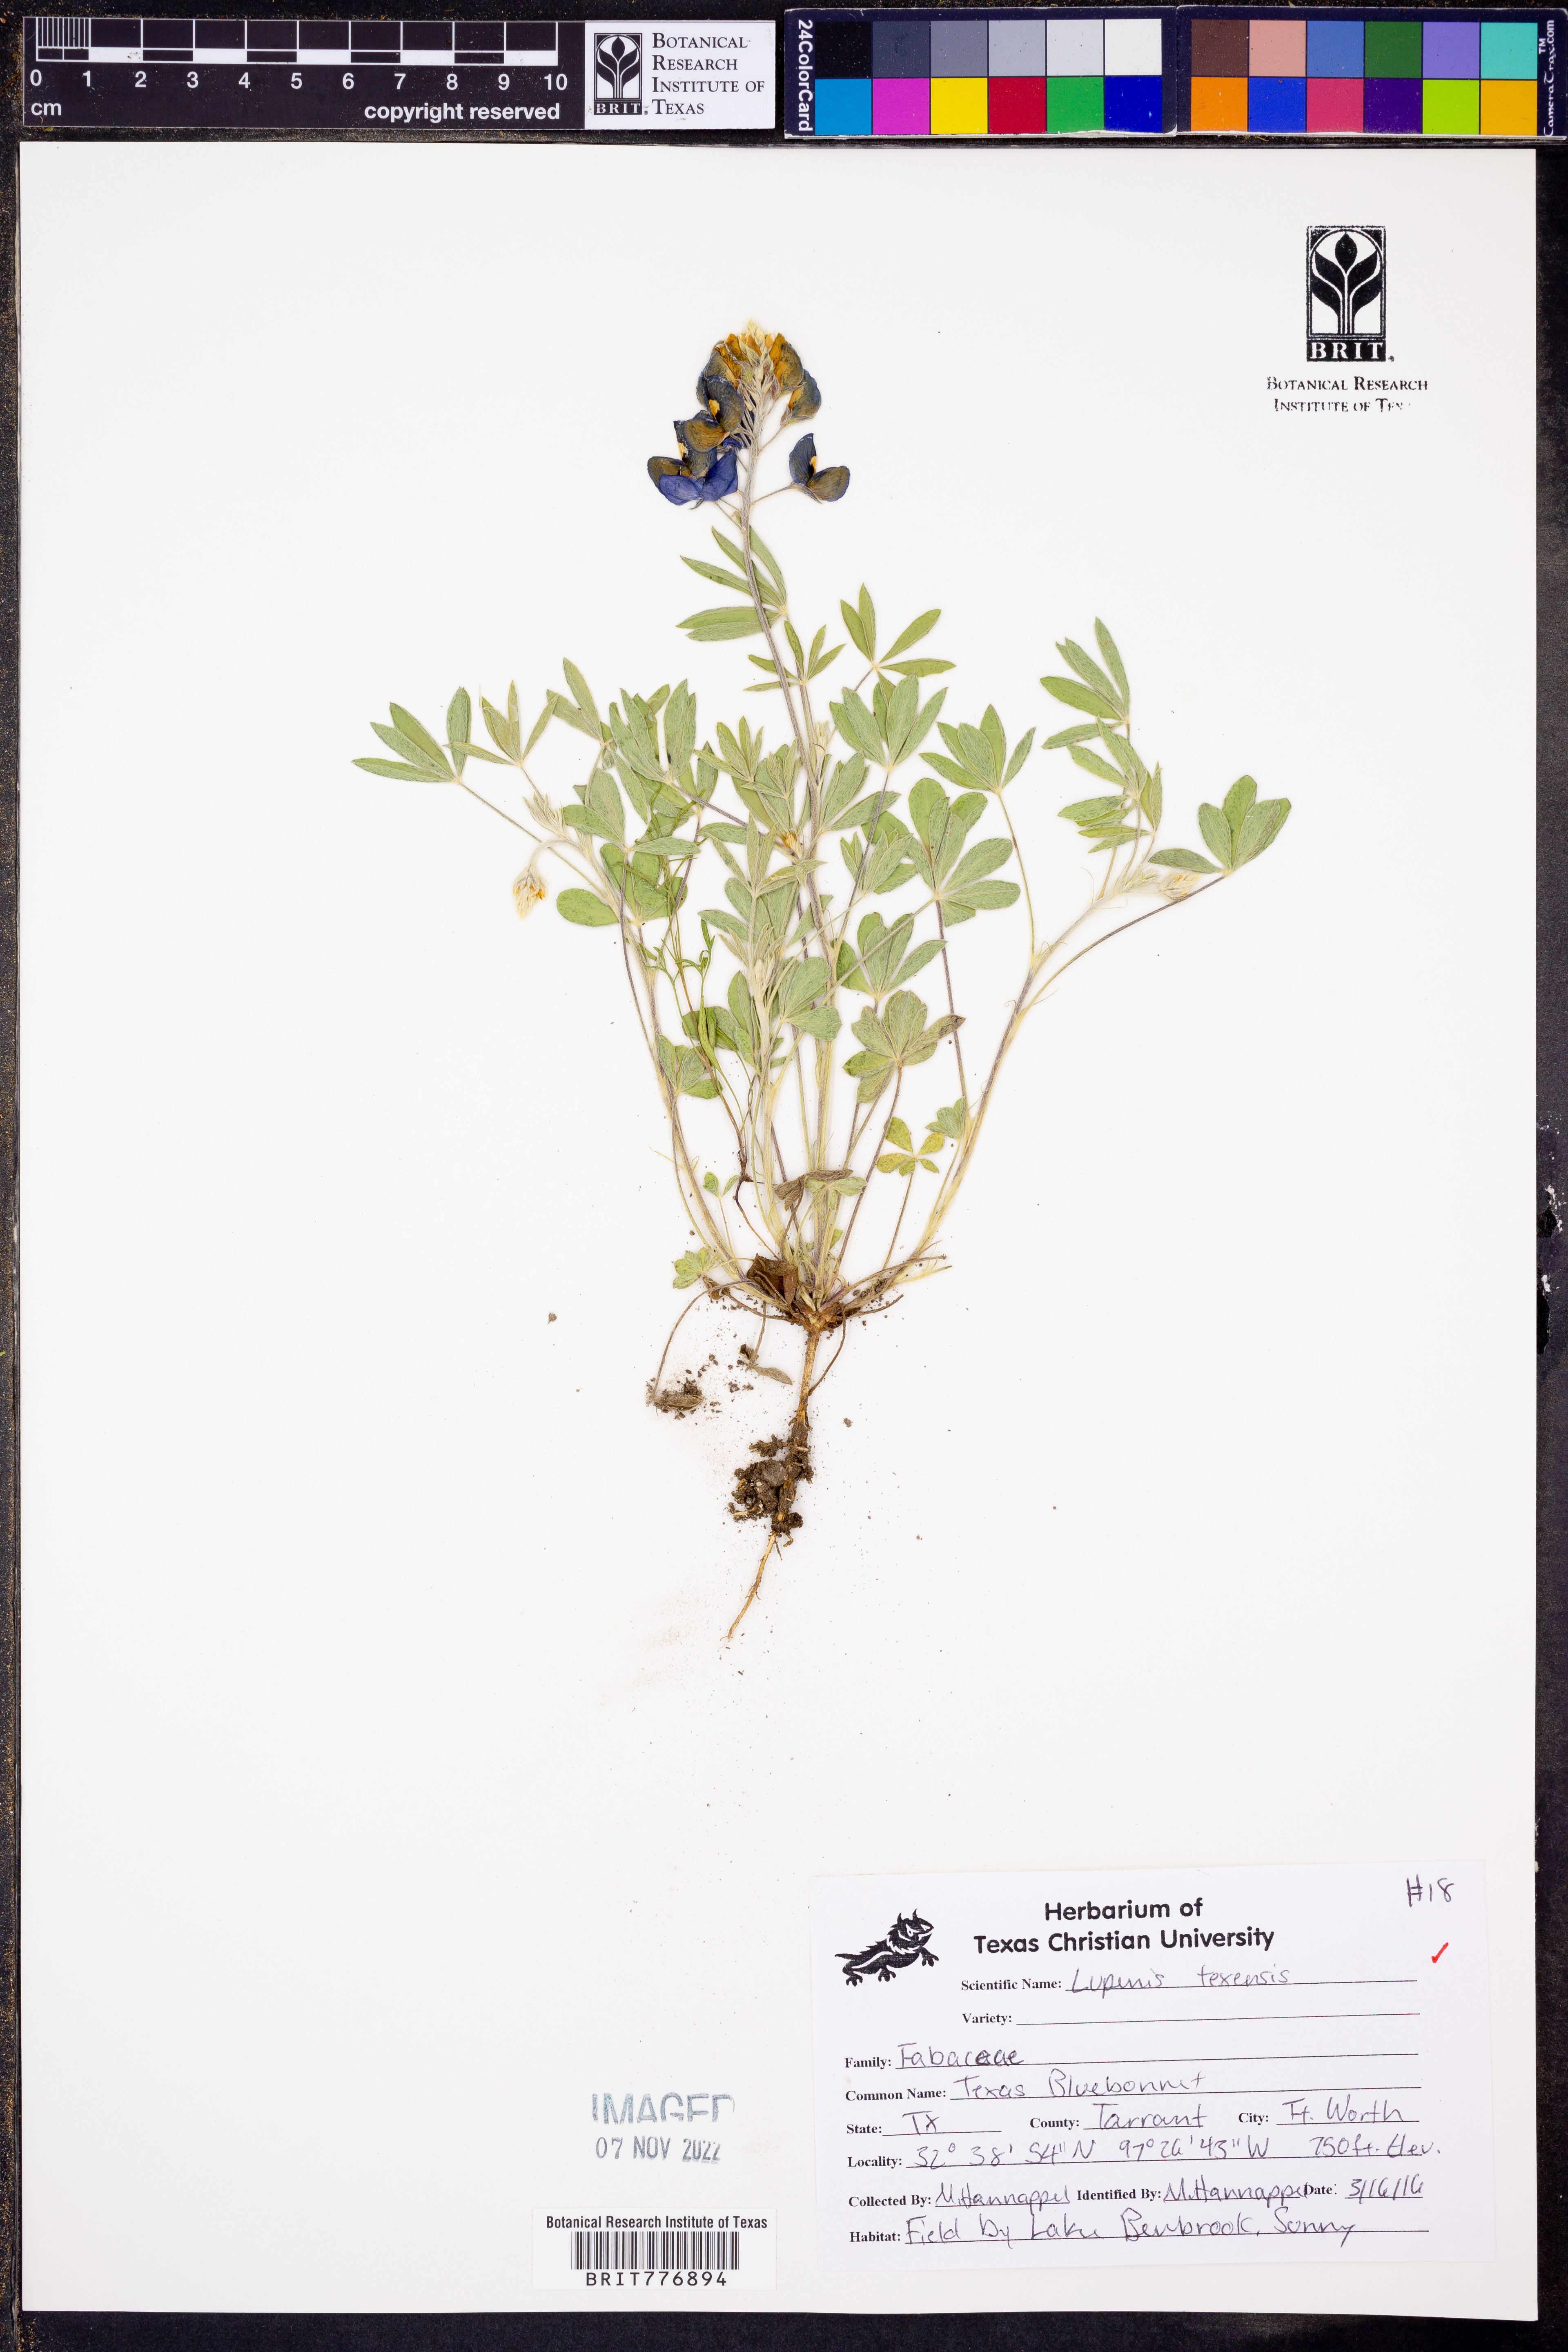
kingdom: Plantae
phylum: Tracheophyta
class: Magnoliopsida
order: Fabales
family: Fabaceae
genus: Lupinus
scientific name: Lupinus texensis
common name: Texas bluebonnet
